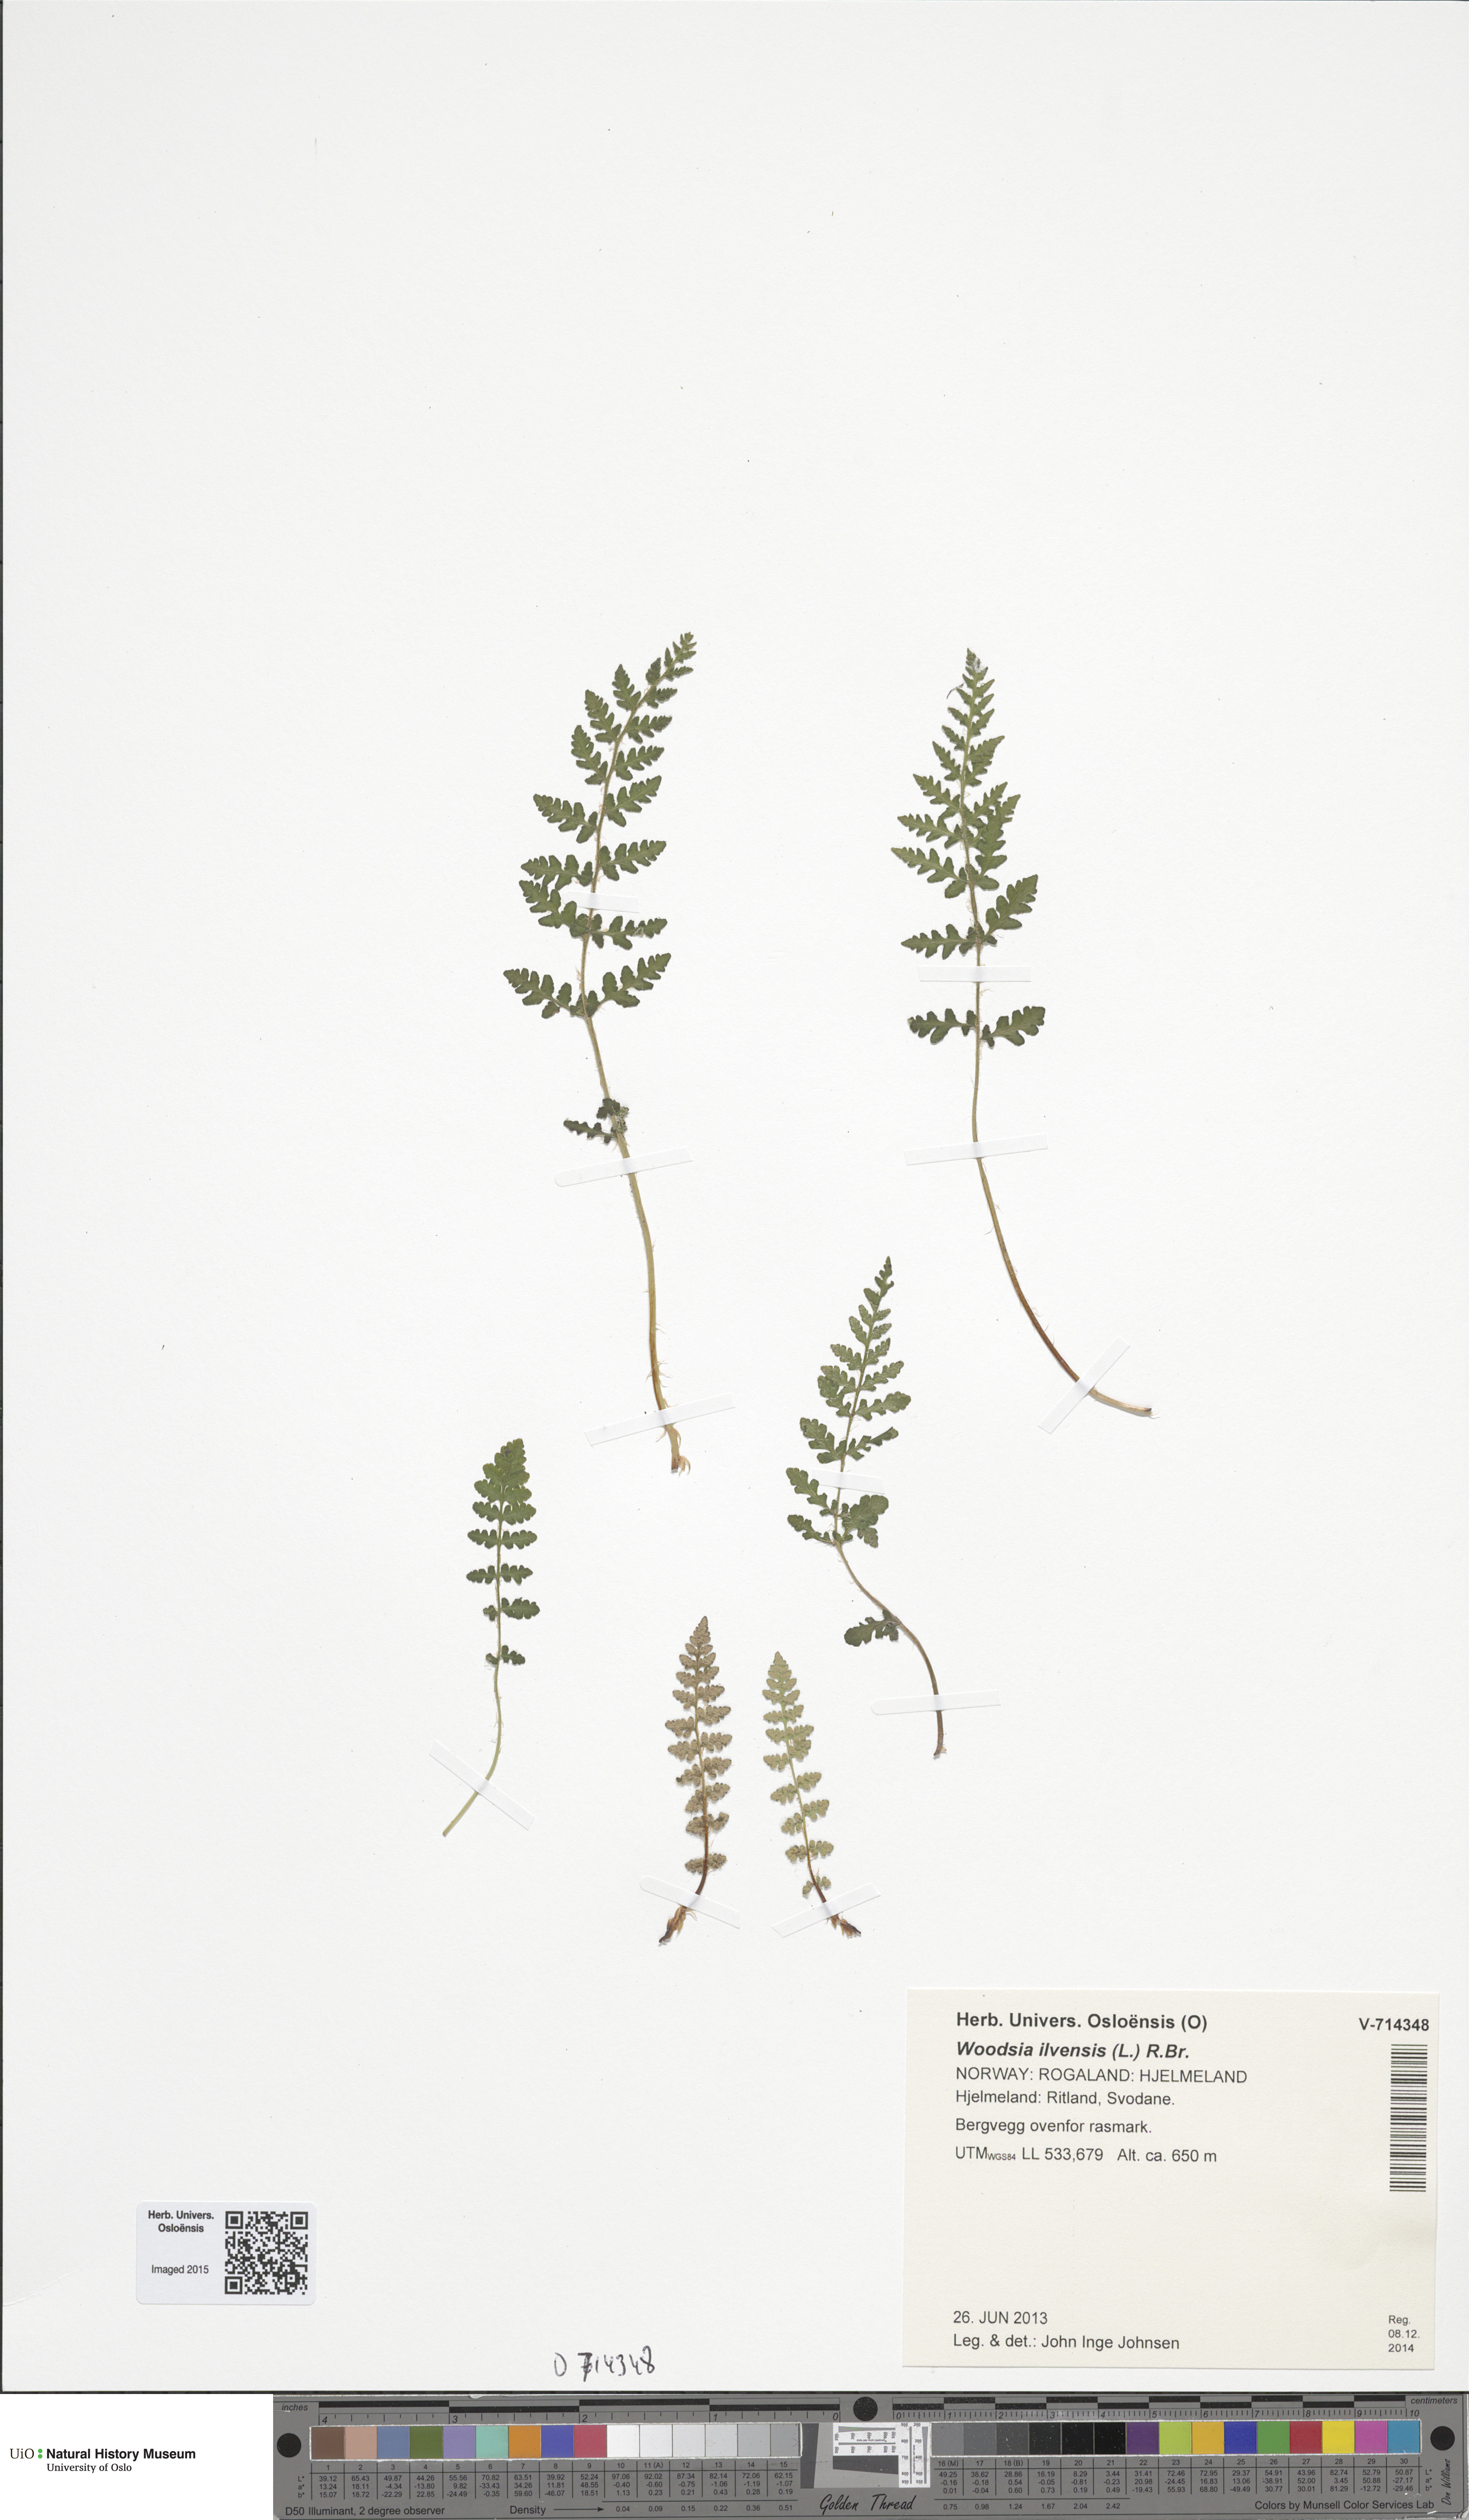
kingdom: Plantae
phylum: Tracheophyta
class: Polypodiopsida
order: Polypodiales
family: Woodsiaceae
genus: Woodsia
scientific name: Woodsia ilvensis
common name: Fragrant woodsia
